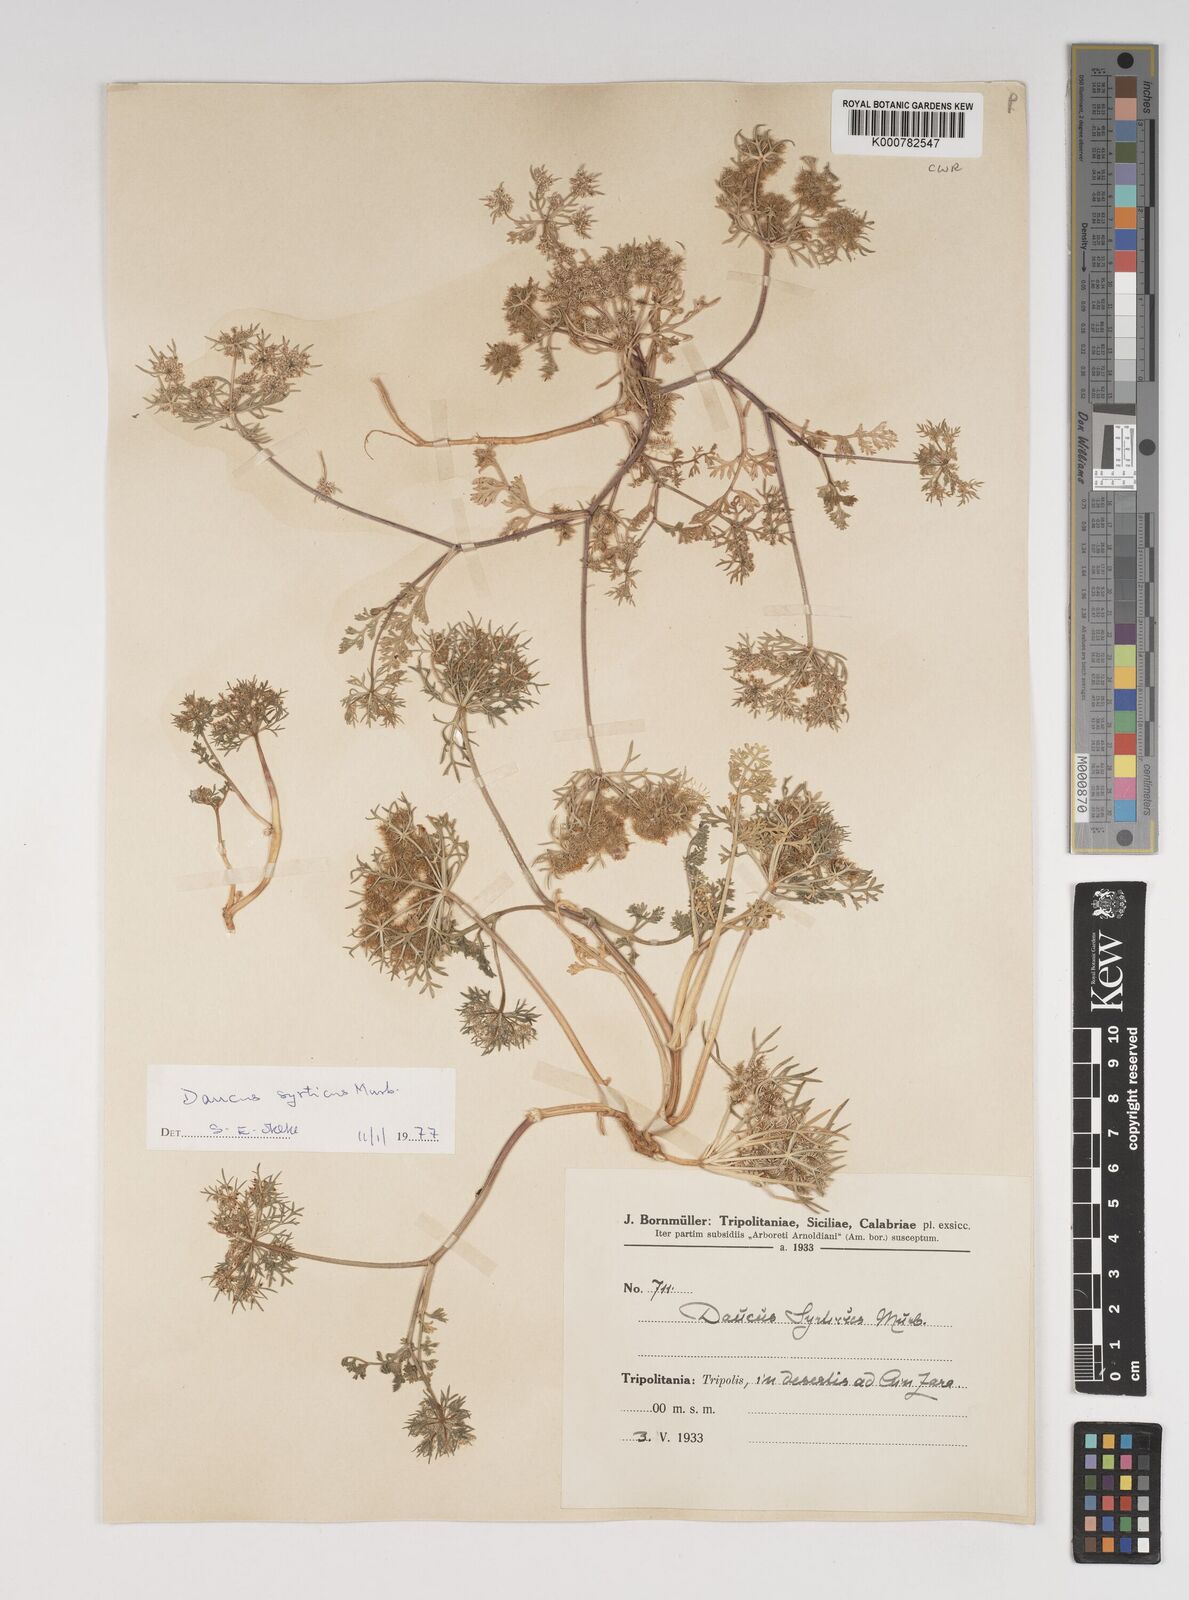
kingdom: Plantae
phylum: Tracheophyta
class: Magnoliopsida
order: Apiales
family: Apiaceae
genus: Daucus
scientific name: Daucus syrticus
